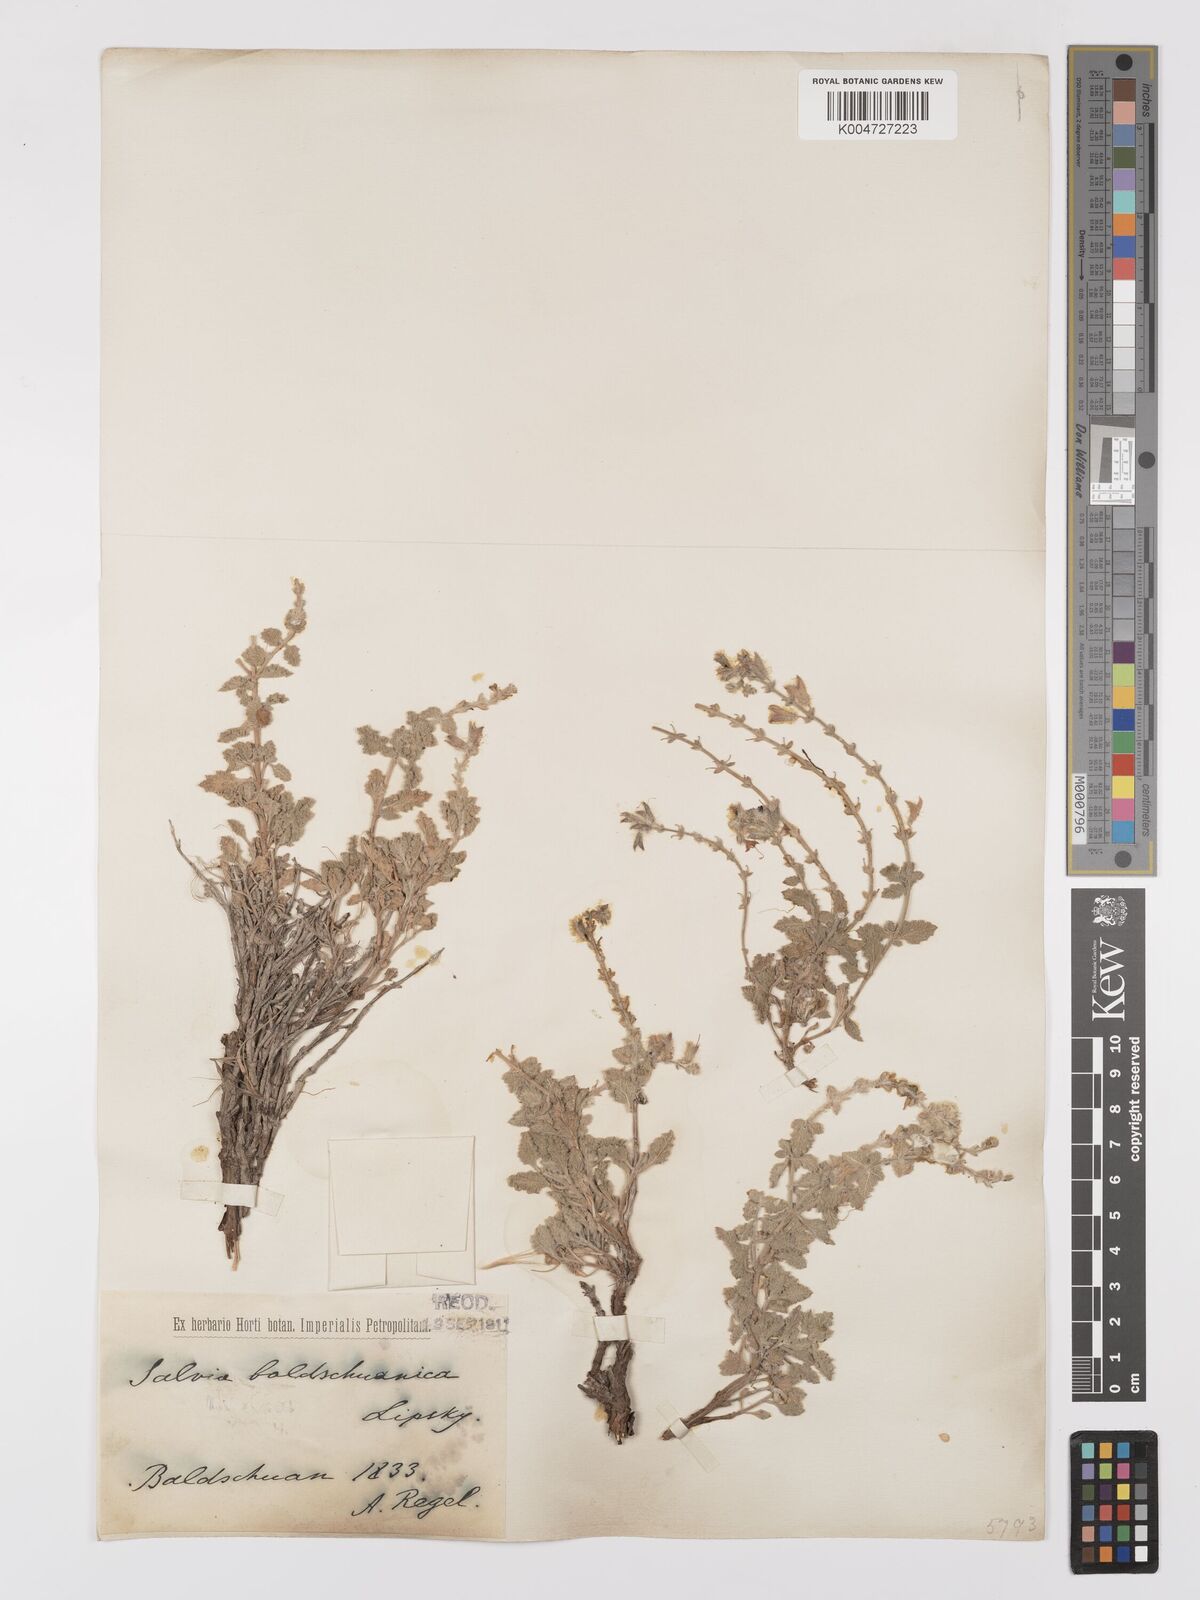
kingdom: Plantae
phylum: Tracheophyta
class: Magnoliopsida
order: Lamiales
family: Lamiaceae
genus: Salvia
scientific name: Salvia baldshuanica
